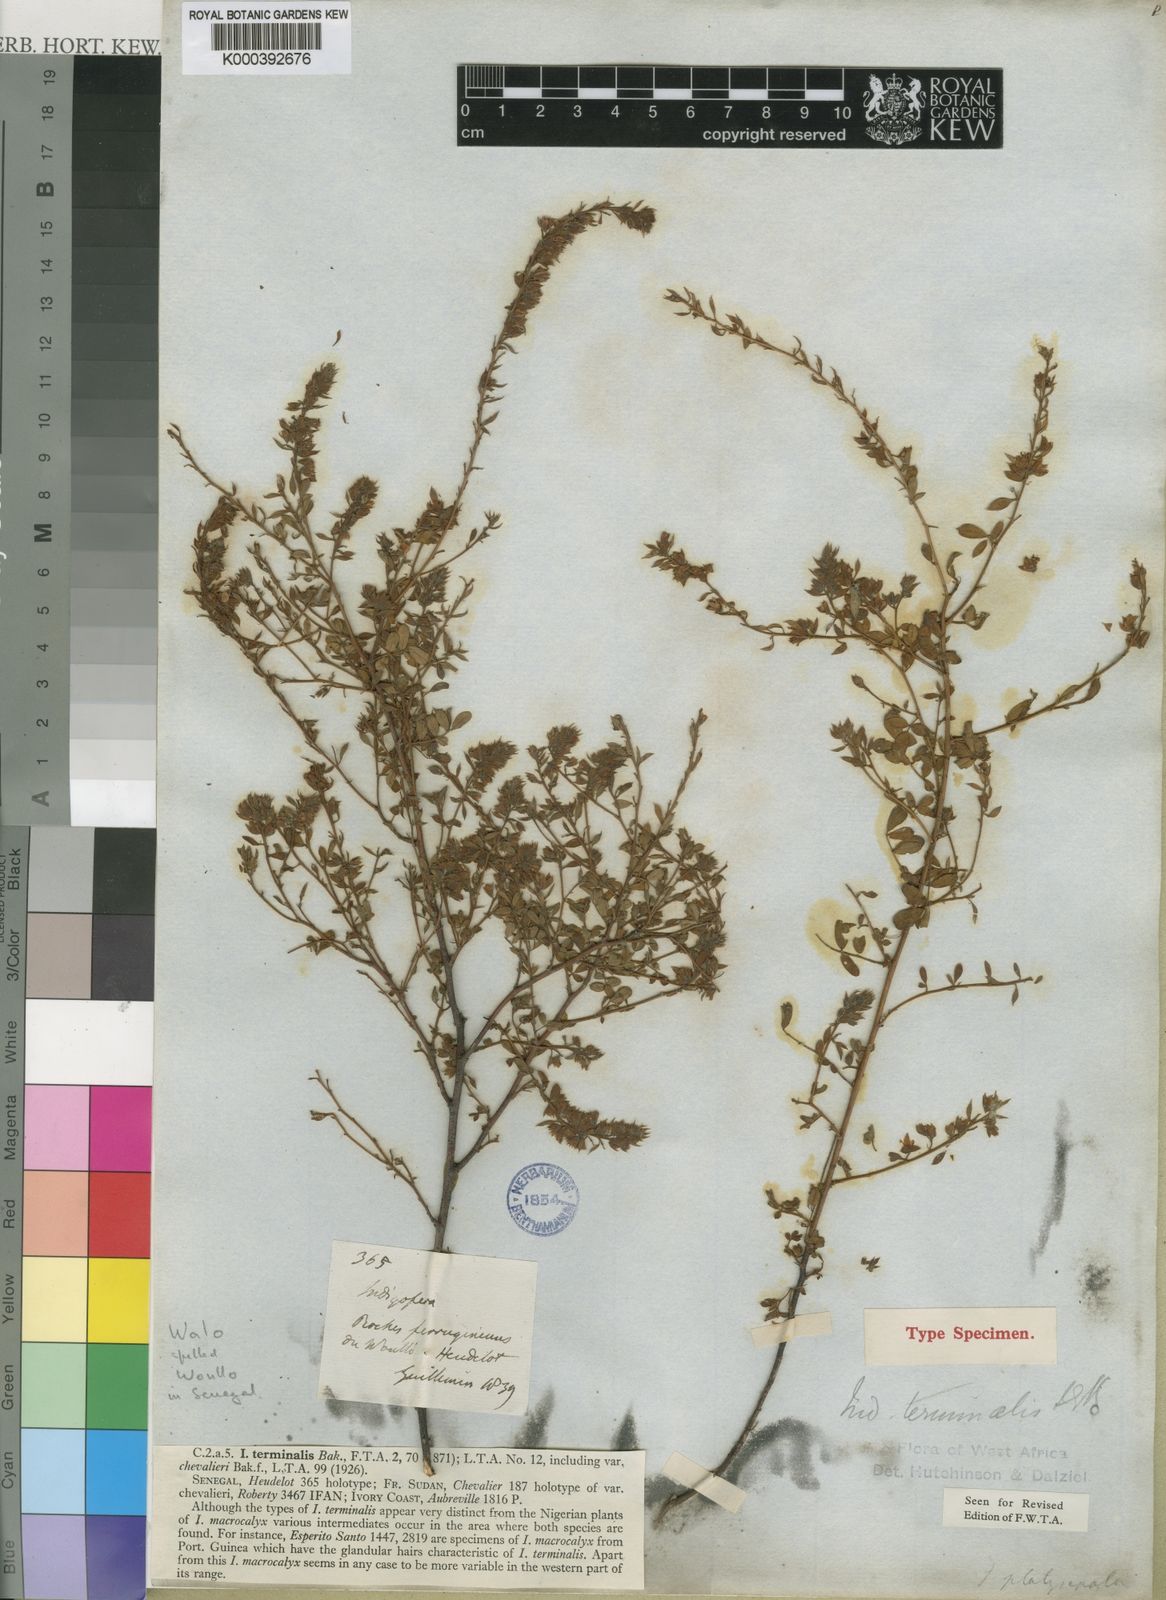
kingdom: Plantae
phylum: Tracheophyta
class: Magnoliopsida
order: Fabales
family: Fabaceae
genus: Indigofera
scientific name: Indigofera terminalis
